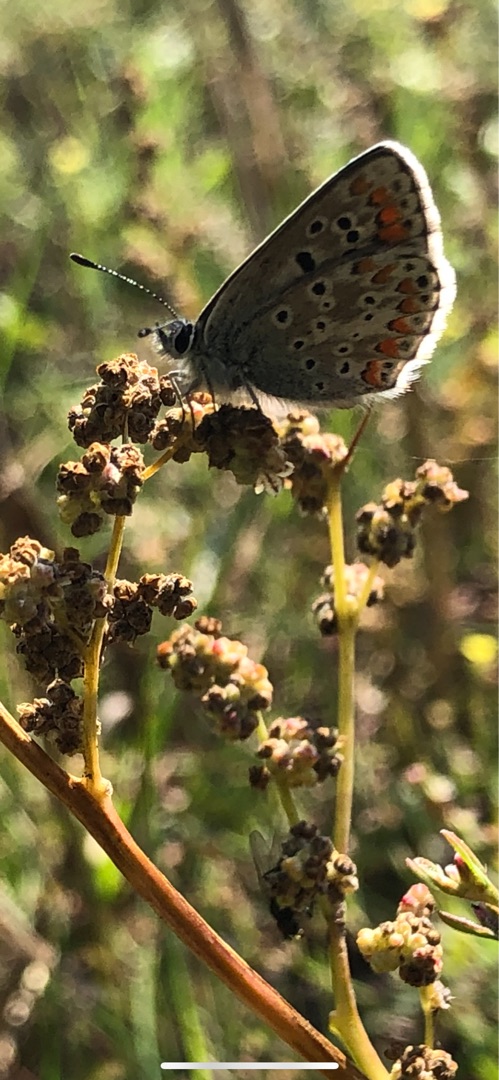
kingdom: Animalia
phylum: Arthropoda
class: Insecta
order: Lepidoptera
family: Lycaenidae
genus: Aricia
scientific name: Aricia agestis
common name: Rødplettet blåfugl
